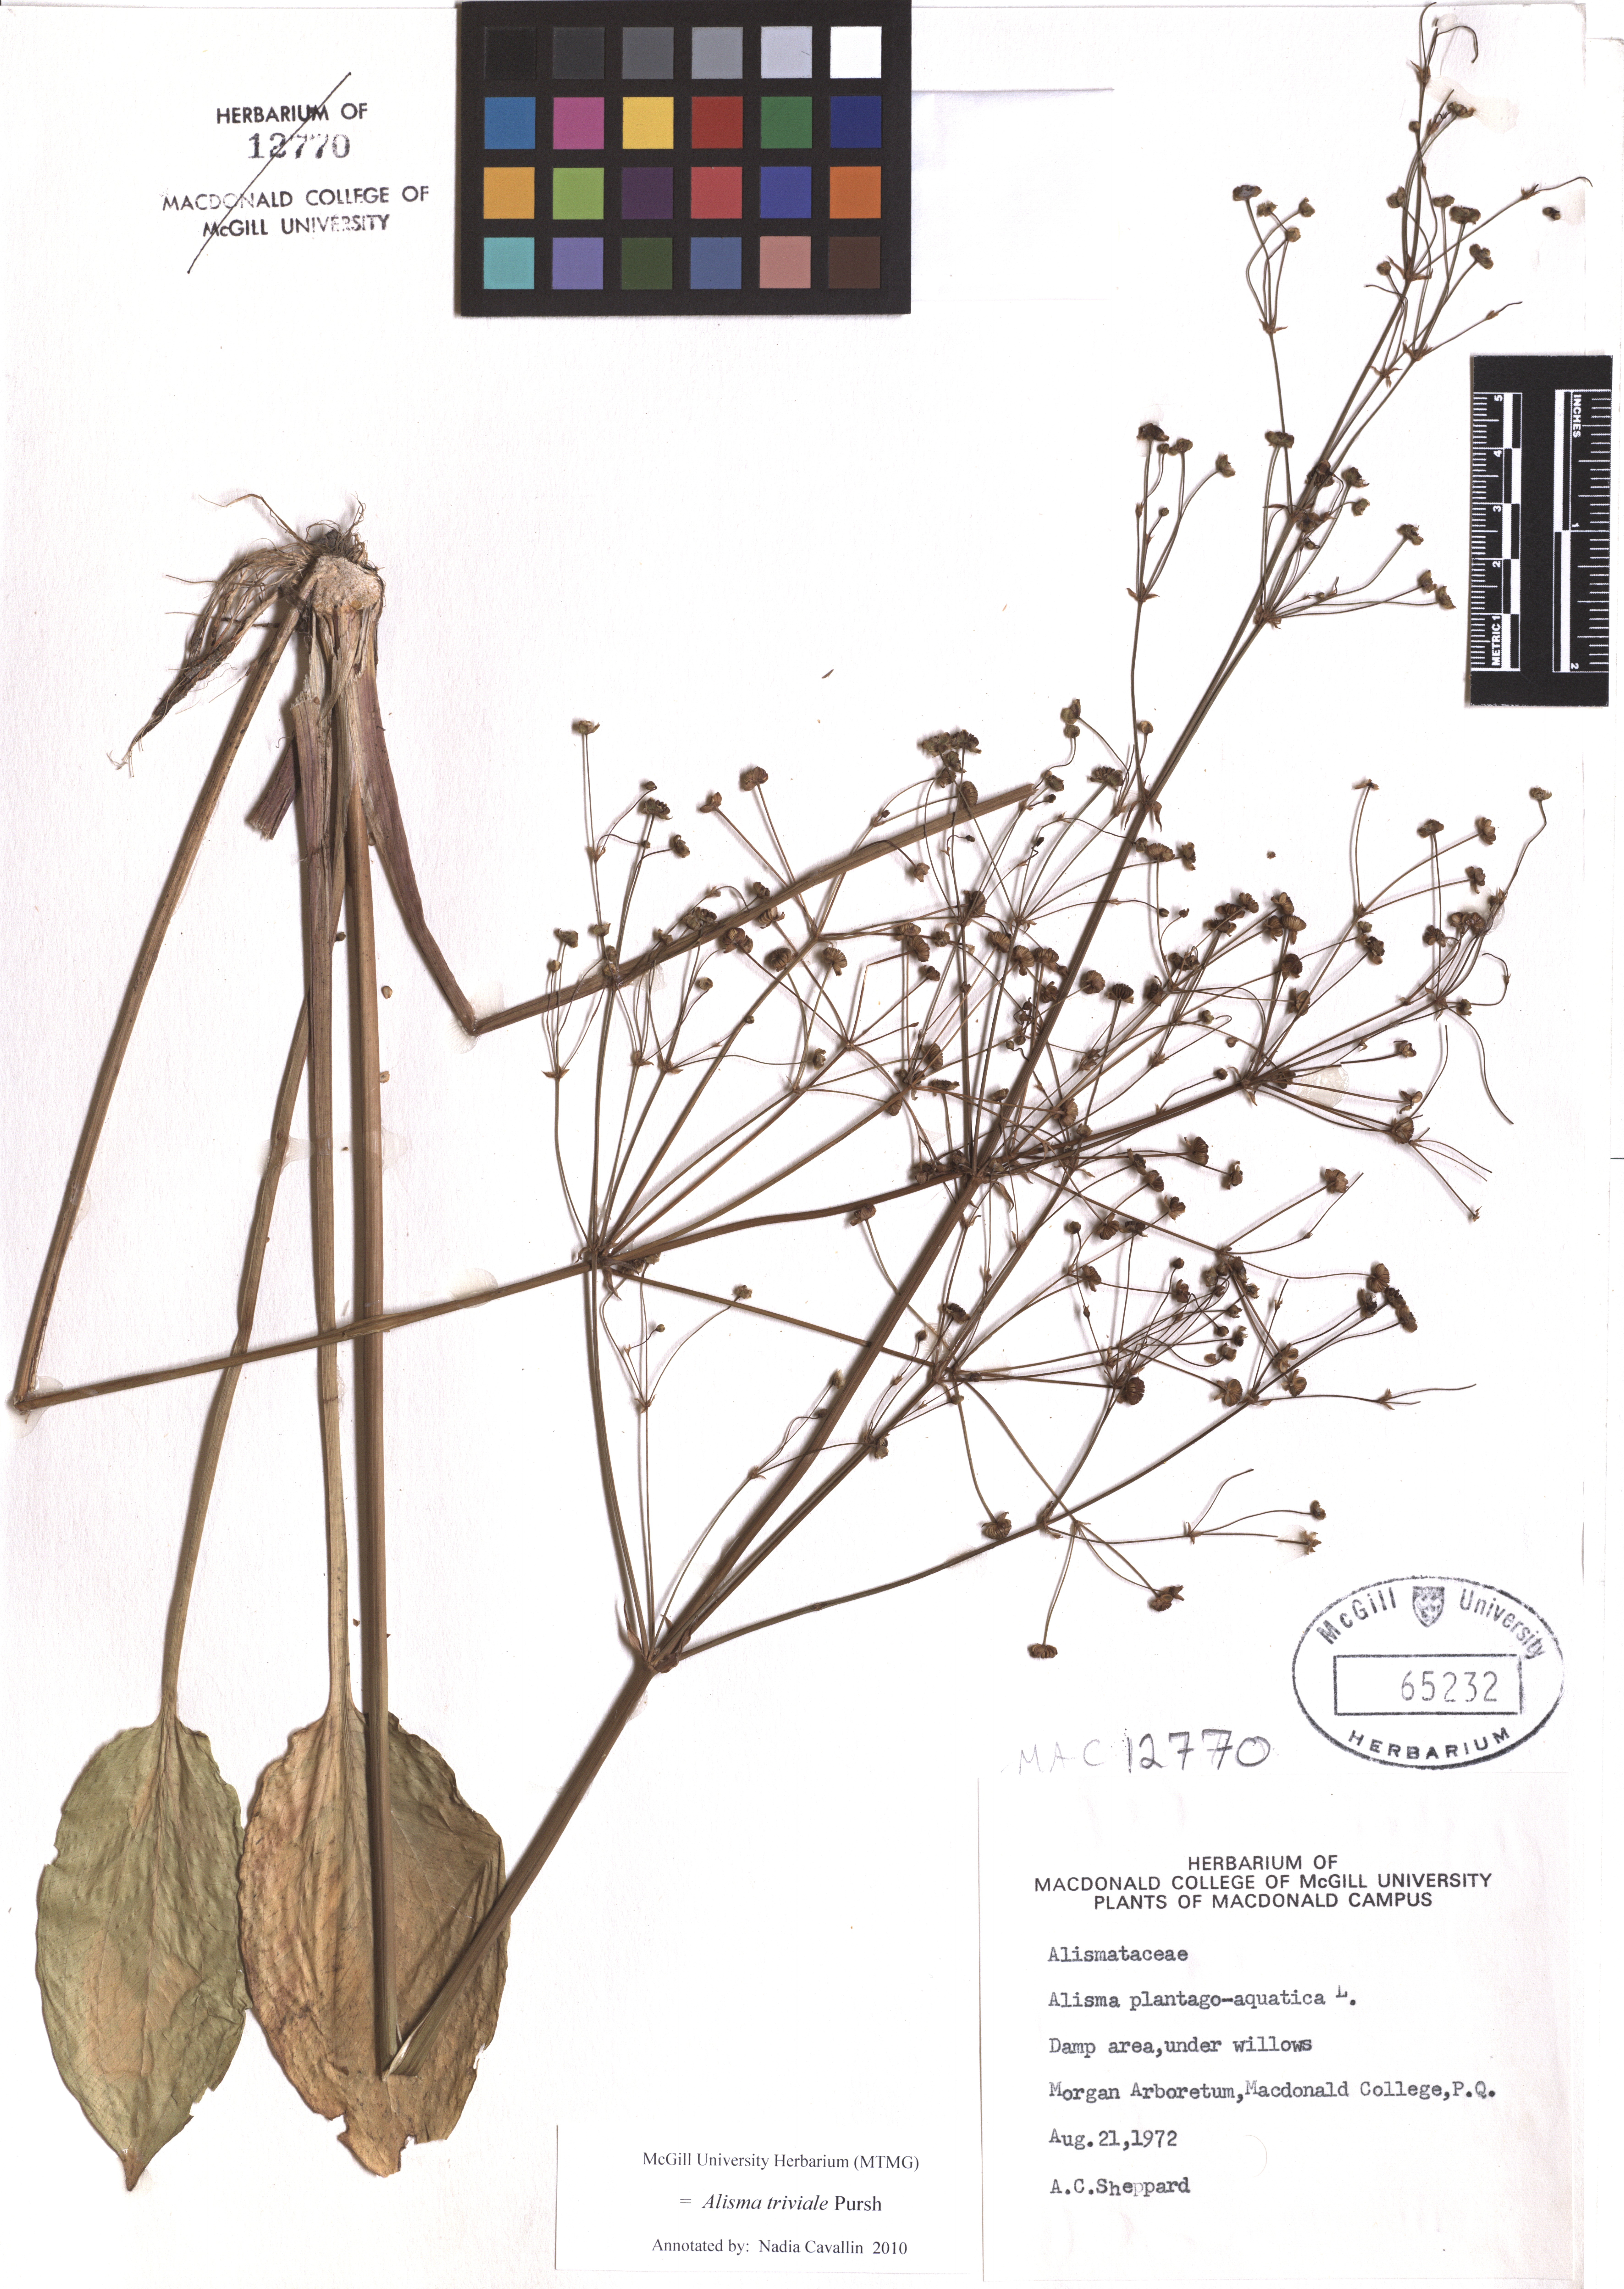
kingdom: Plantae
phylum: Tracheophyta
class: Liliopsida
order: Alismatales
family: Alismataceae
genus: Alisma
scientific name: Alisma triviale
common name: Northern water-plantain
